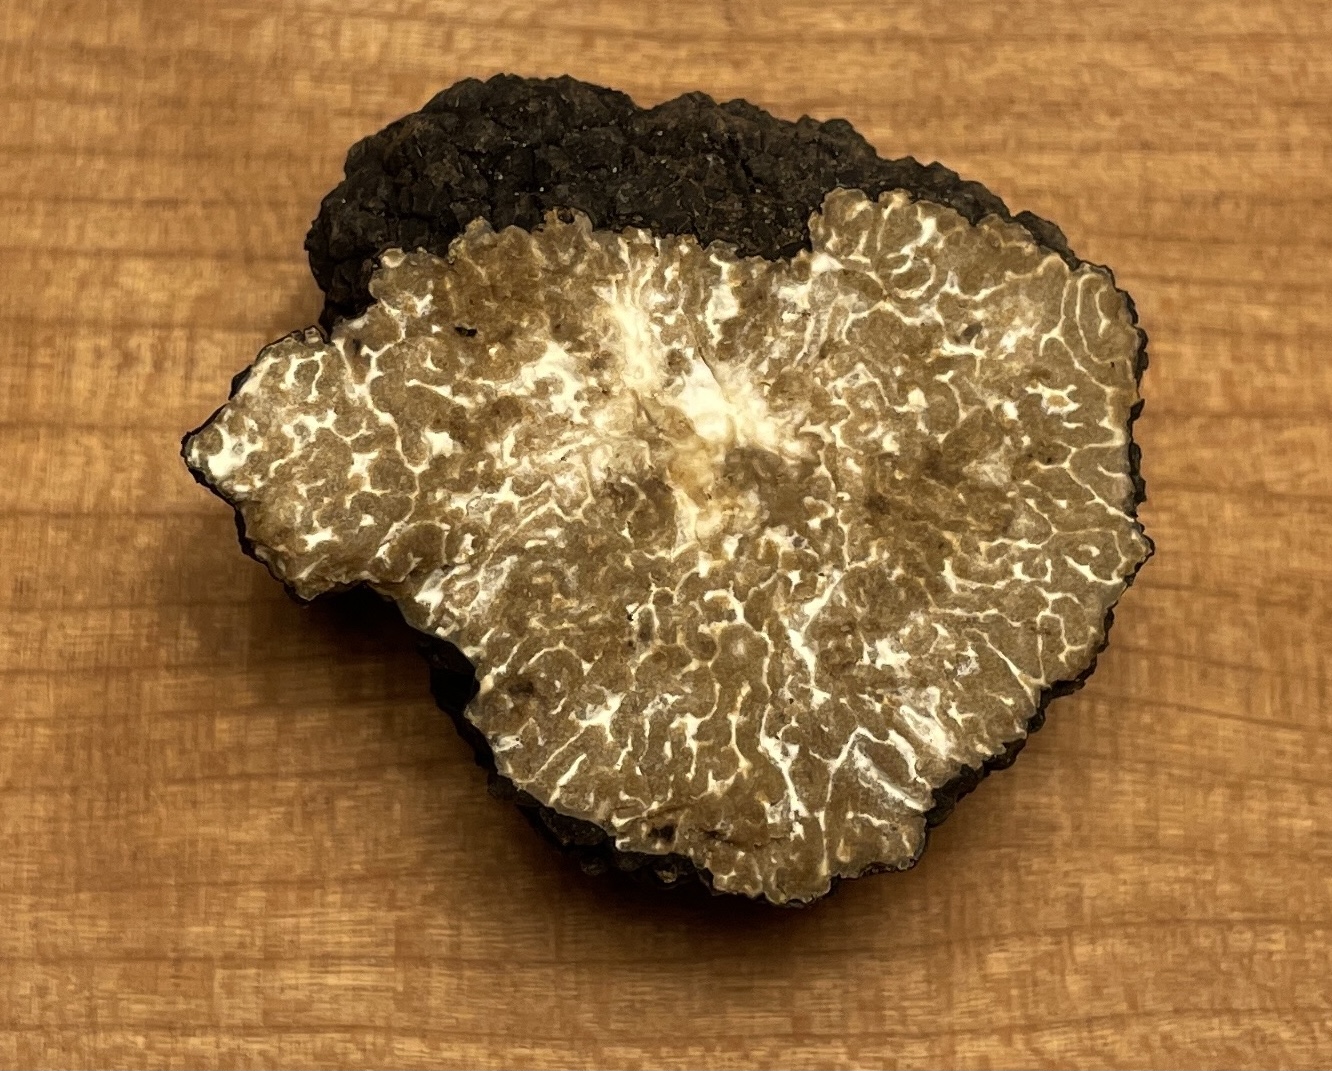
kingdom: Fungi
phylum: Ascomycota
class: Pezizomycetes
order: Pezizales
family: Tuberaceae
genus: Tuber
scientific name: Tuber aestivum
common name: sommer-trøffel
